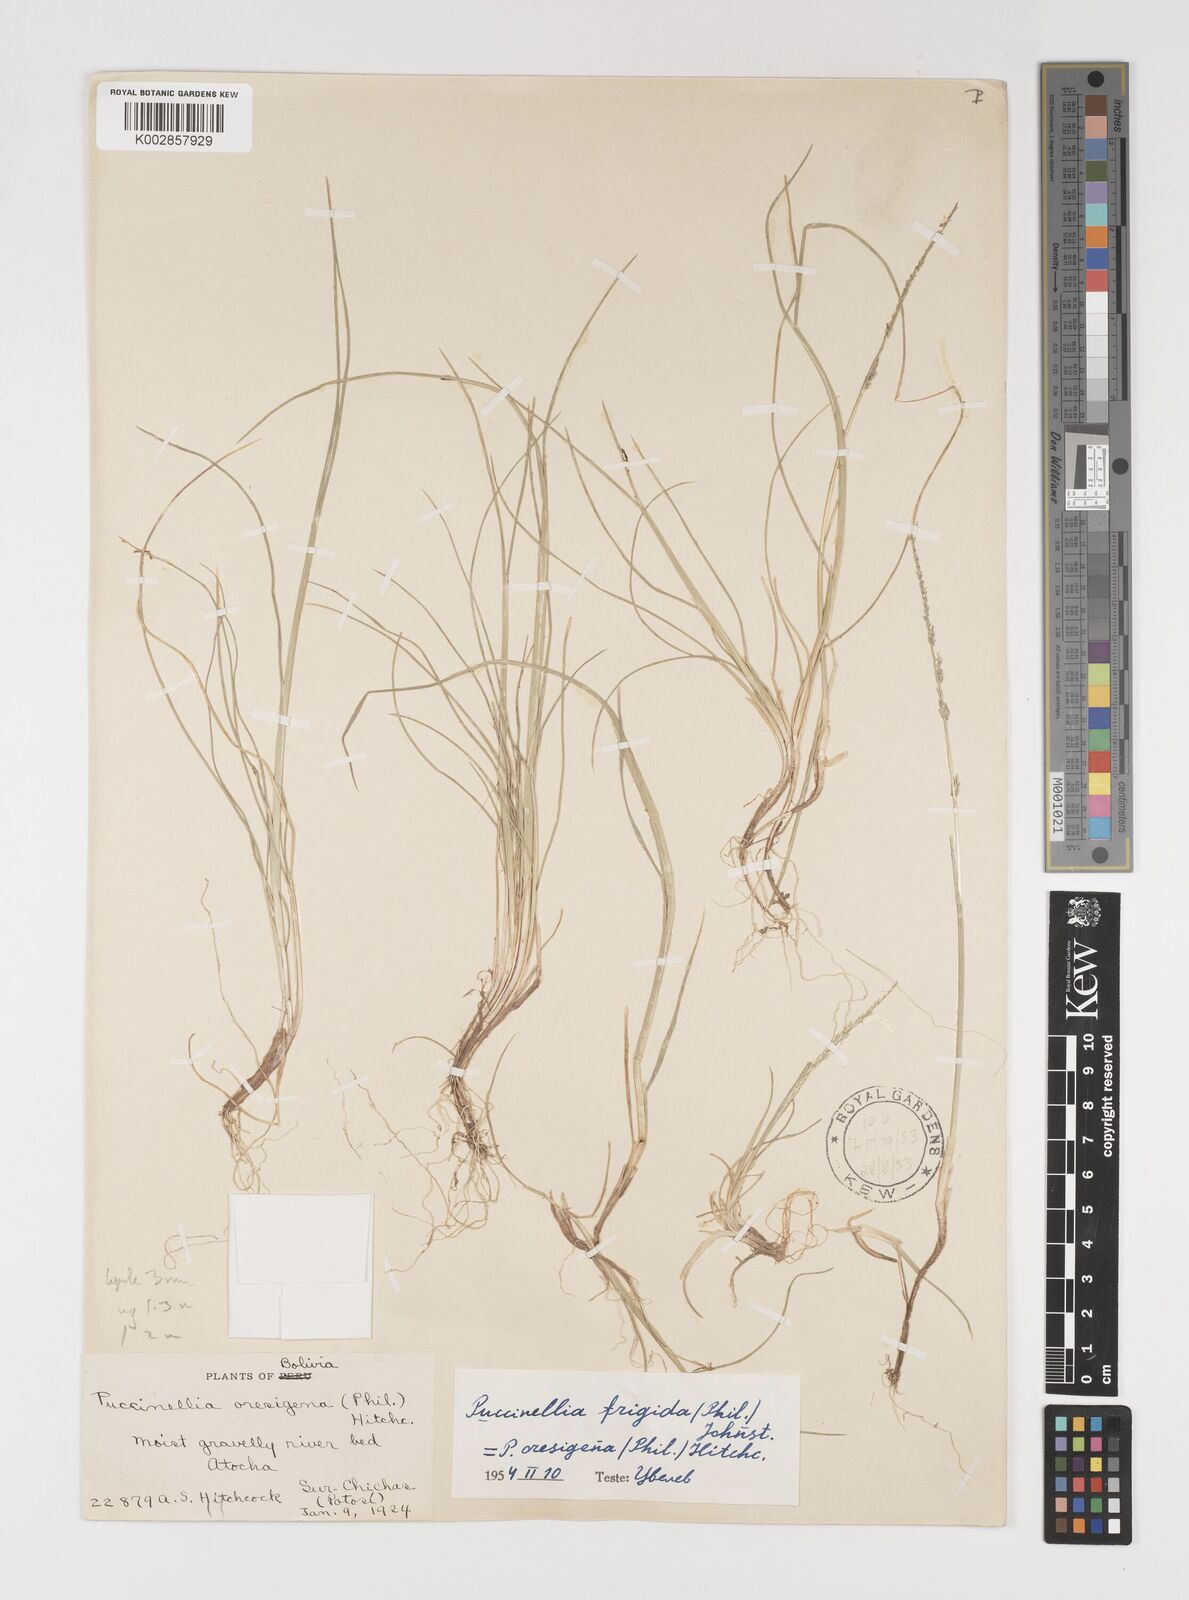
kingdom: Plantae
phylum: Tracheophyta
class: Liliopsida
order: Poales
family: Poaceae
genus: Puccinellia
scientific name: Puccinellia frigida
